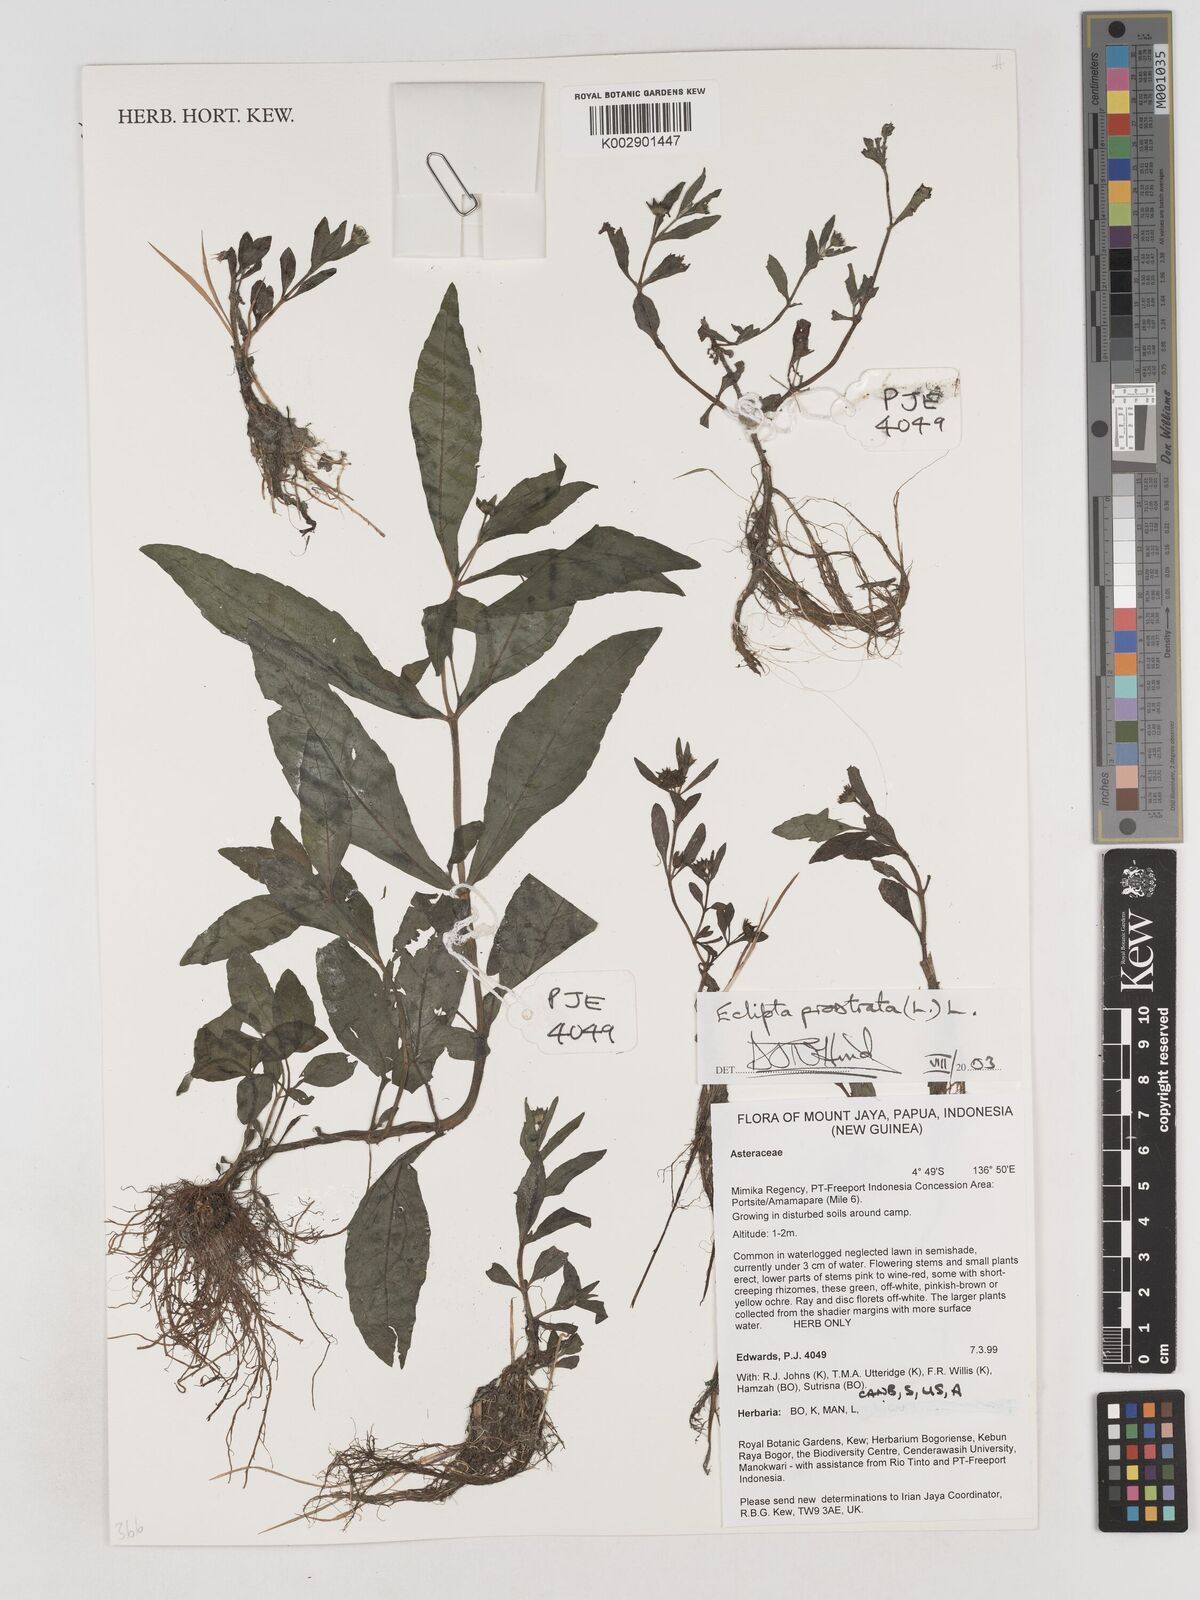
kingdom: Plantae
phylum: Tracheophyta
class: Magnoliopsida
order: Asterales
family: Asteraceae
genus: Eclipta
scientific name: Eclipta prostrata
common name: False daisy
